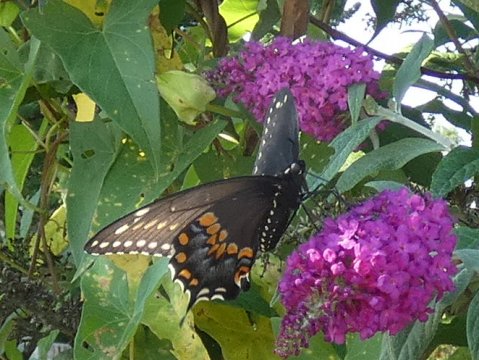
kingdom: Animalia
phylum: Arthropoda
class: Insecta
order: Lepidoptera
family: Papilionidae
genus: Papilio
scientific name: Papilio polyxenes
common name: Black Swallowtail
